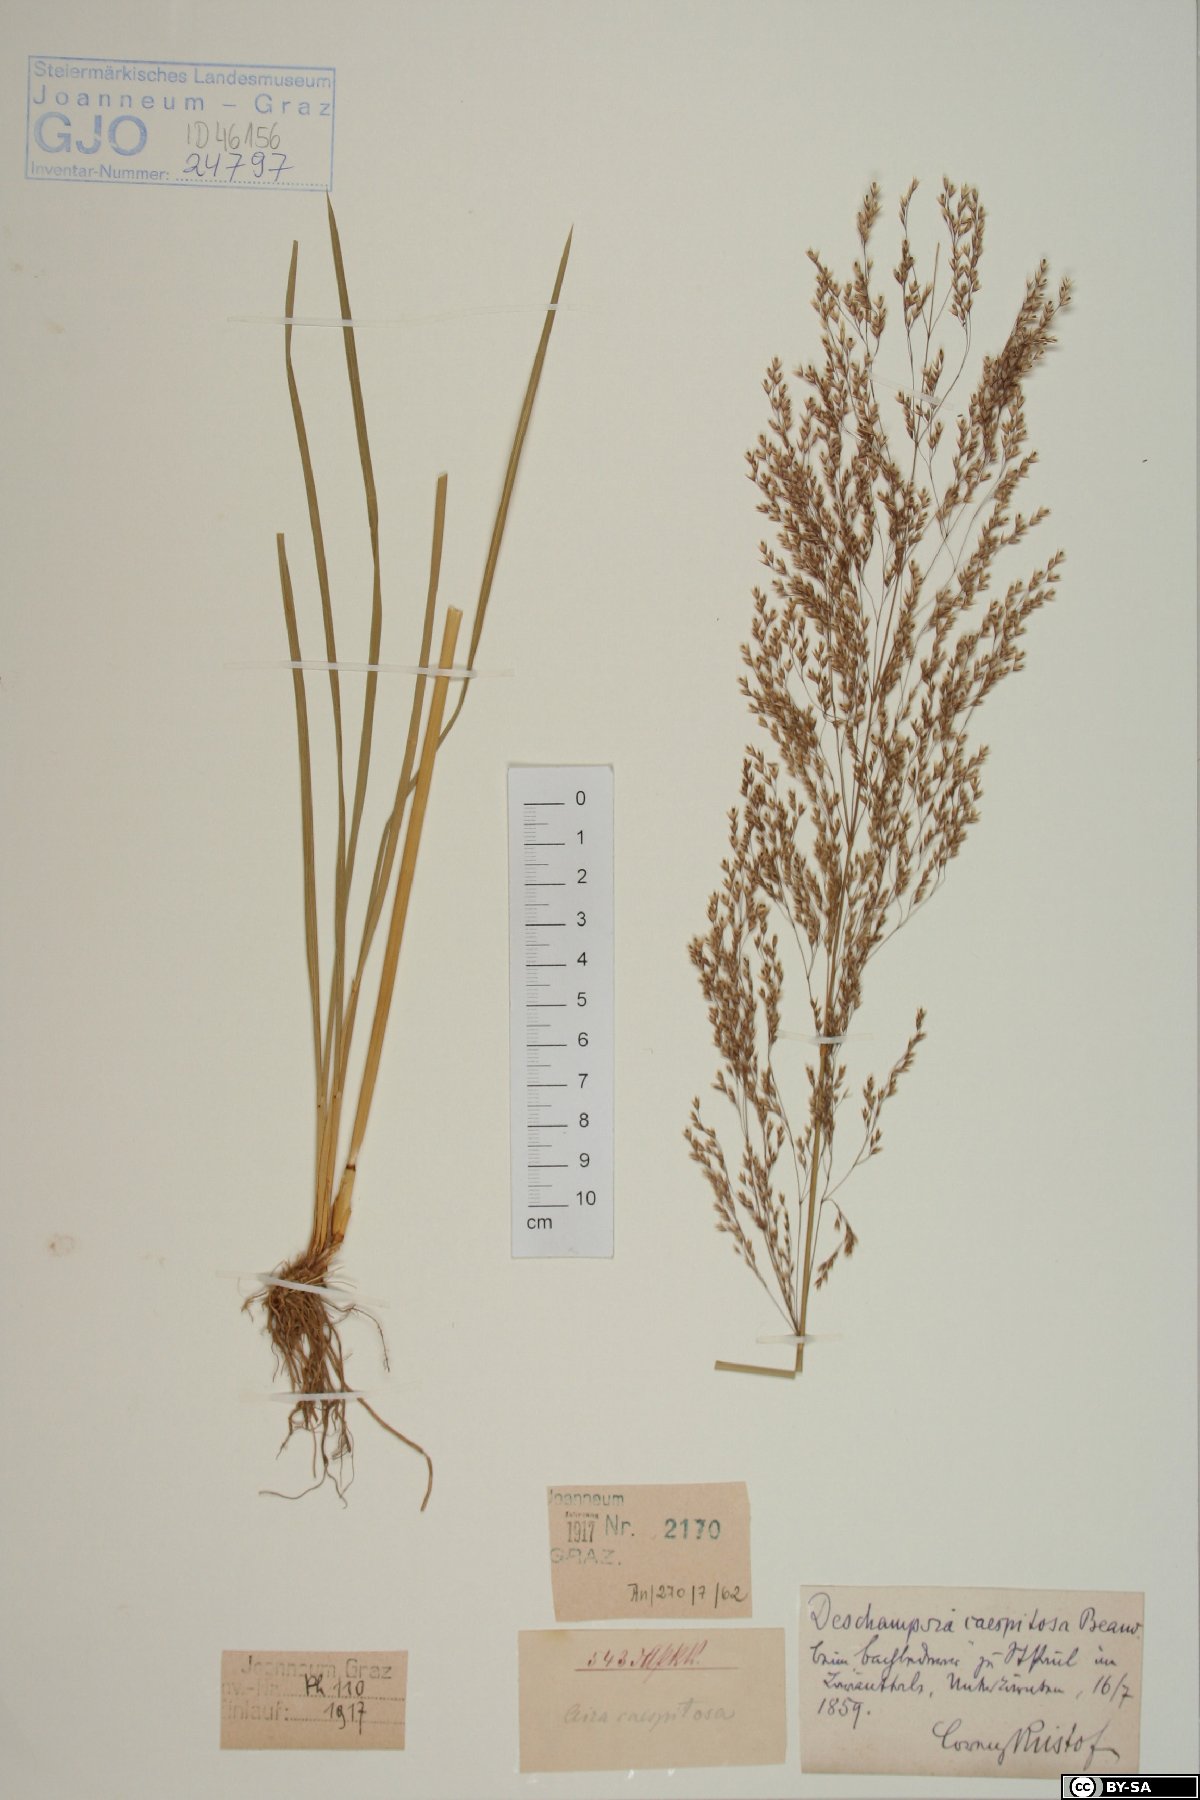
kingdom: Plantae
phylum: Tracheophyta
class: Liliopsida
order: Poales
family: Poaceae
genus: Deschampsia
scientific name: Deschampsia cespitosa
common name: Tufted hair-grass
